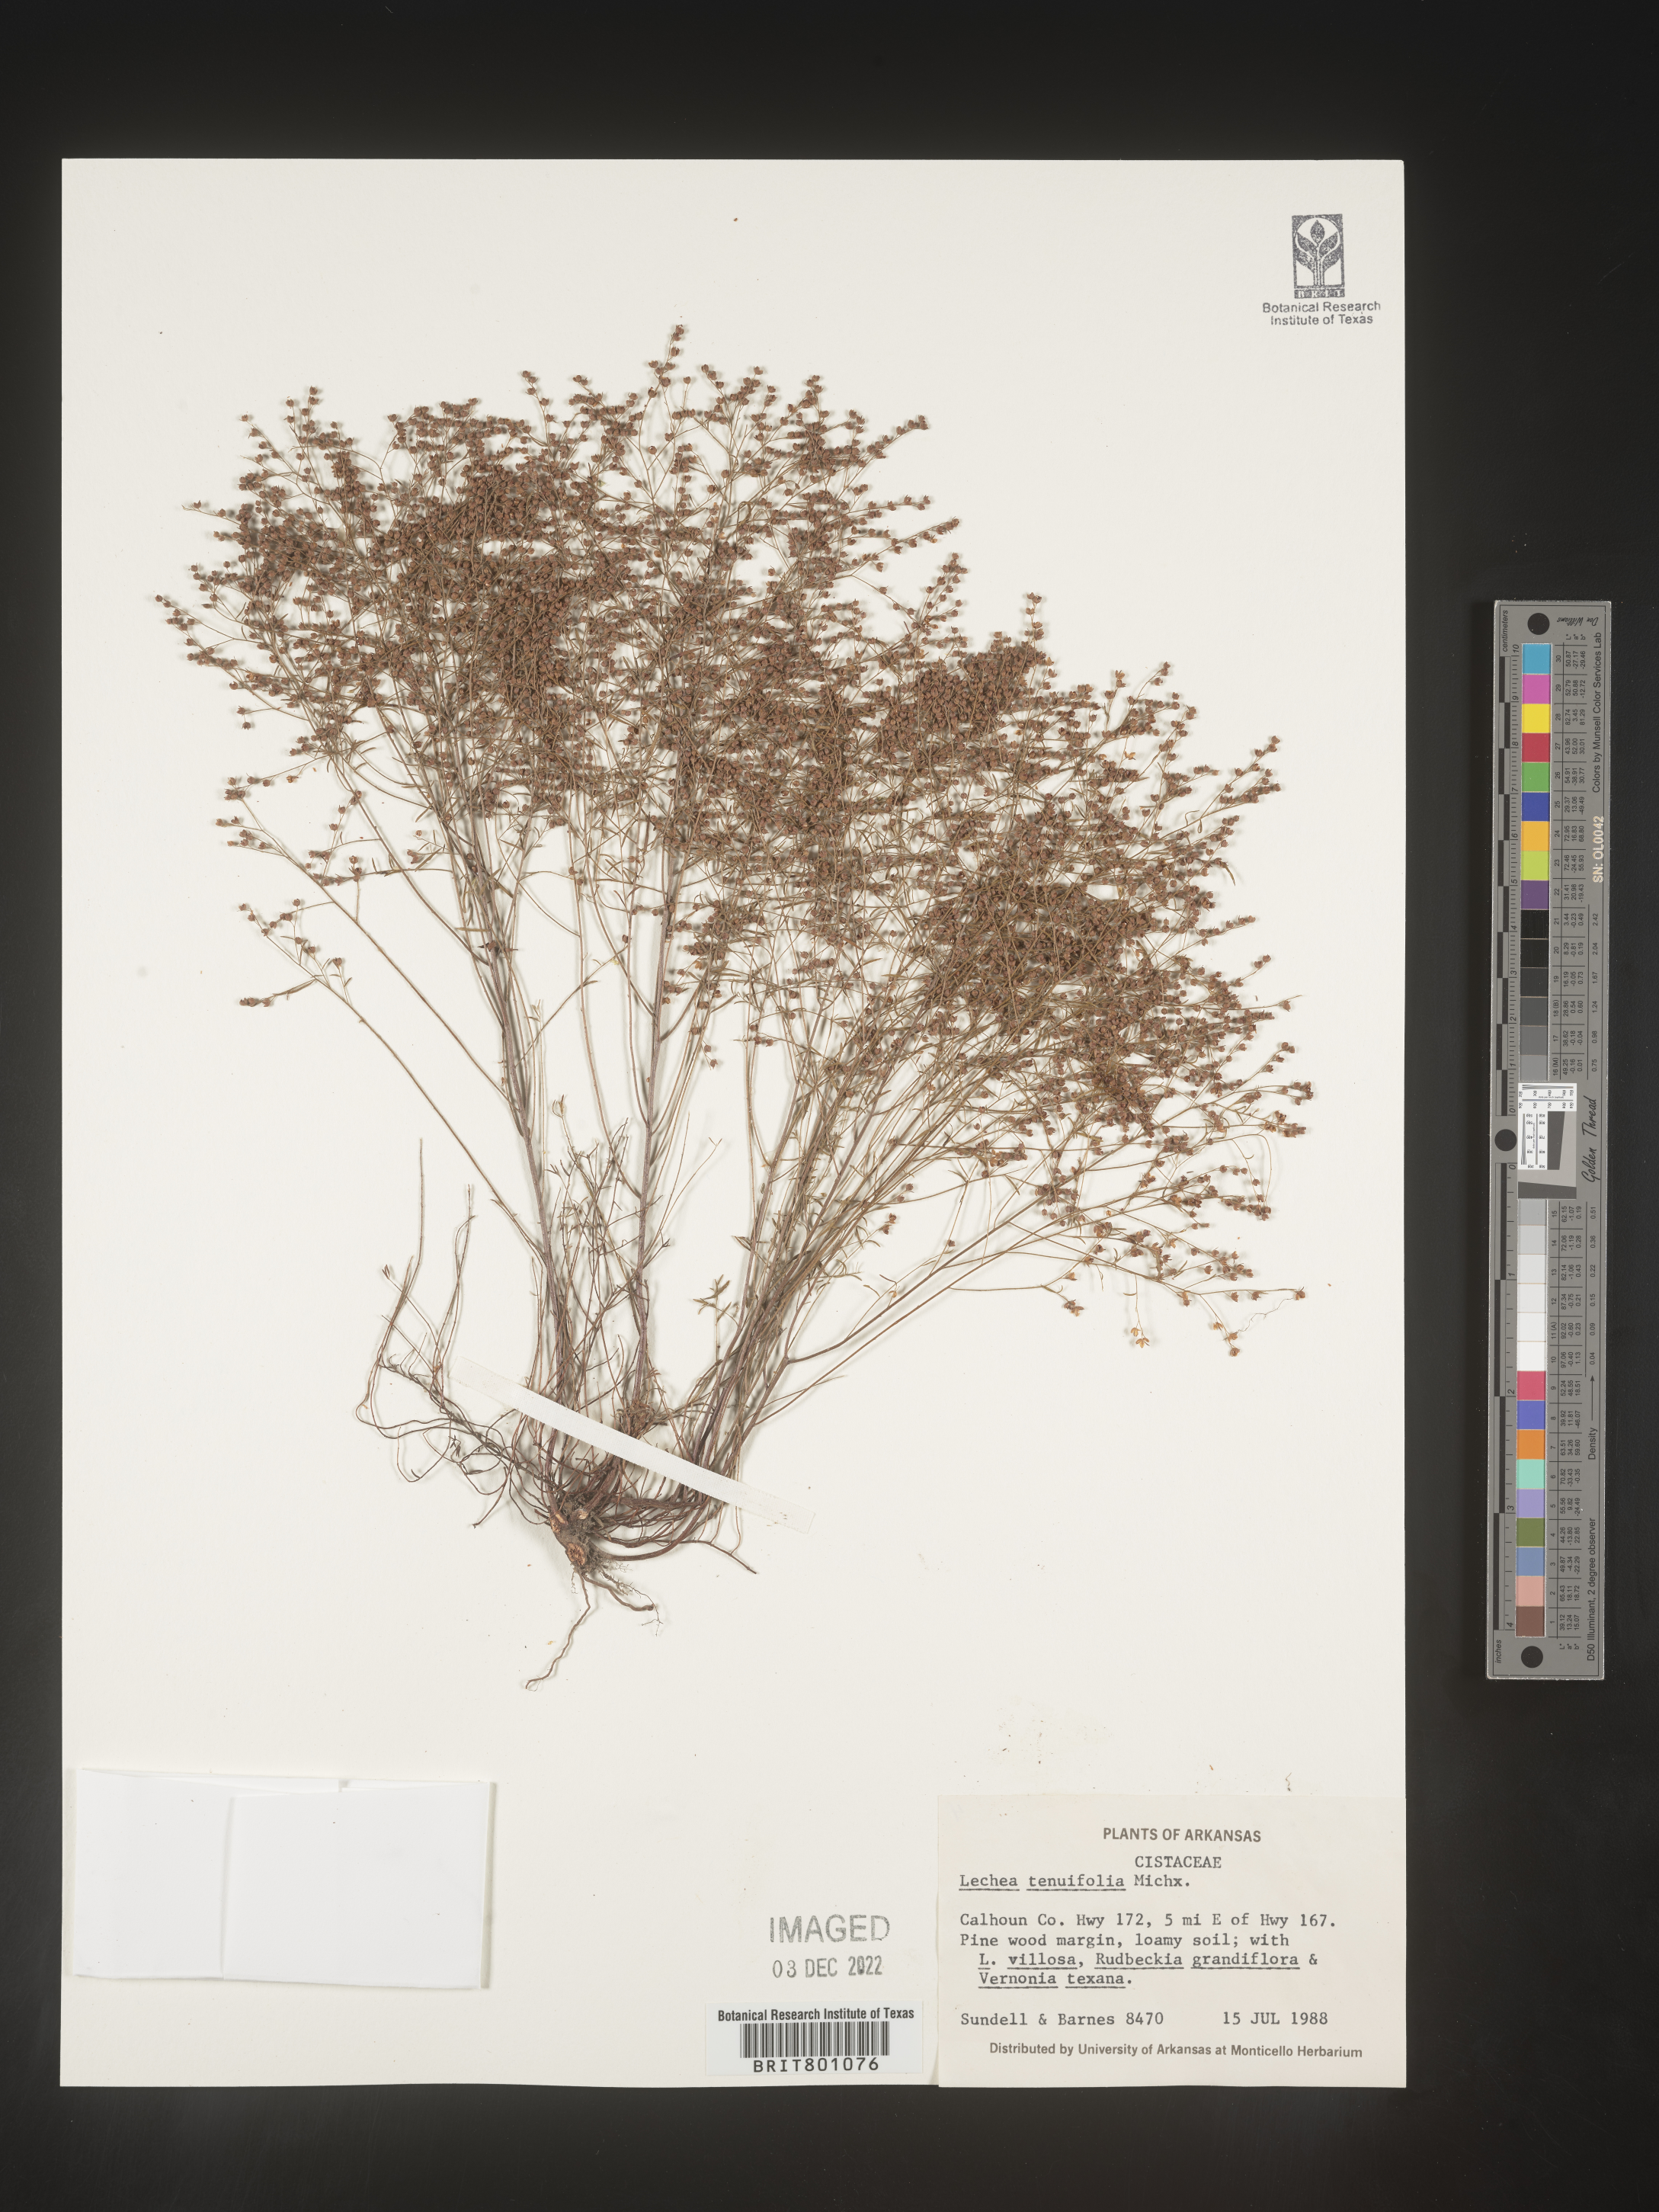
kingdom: Plantae
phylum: Tracheophyta
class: Magnoliopsida
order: Malvales
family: Cistaceae
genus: Lechea
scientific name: Lechea tenuifolia
